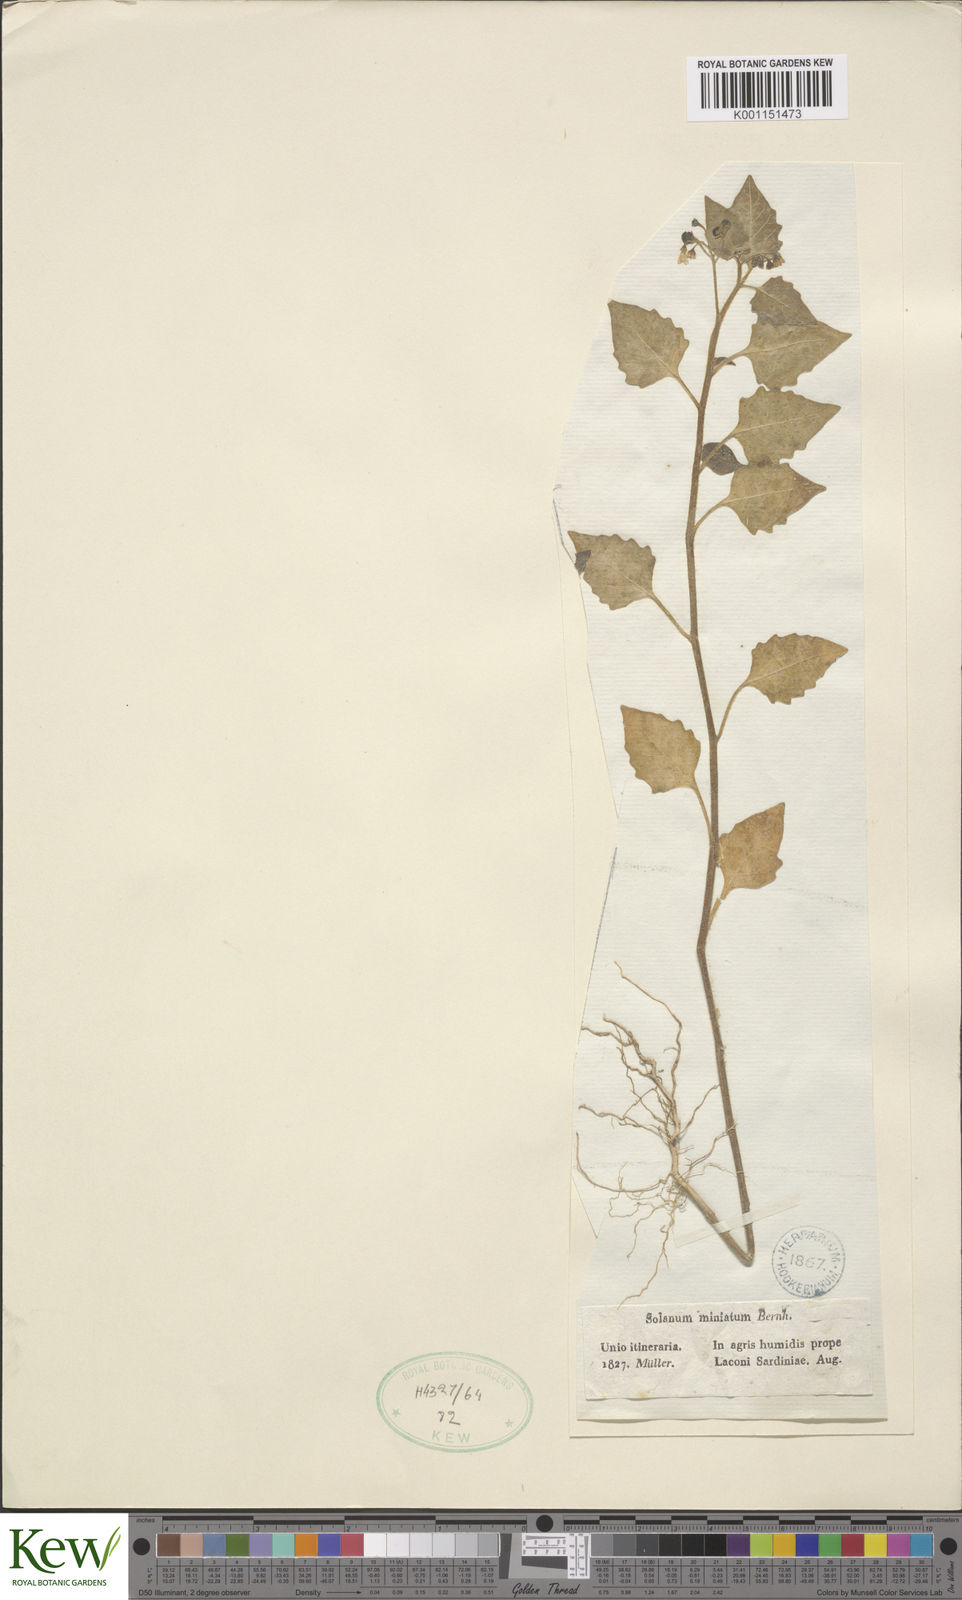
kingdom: Plantae
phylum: Tracheophyta
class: Magnoliopsida
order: Solanales
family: Solanaceae
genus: Solanum
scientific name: Solanum alatum
